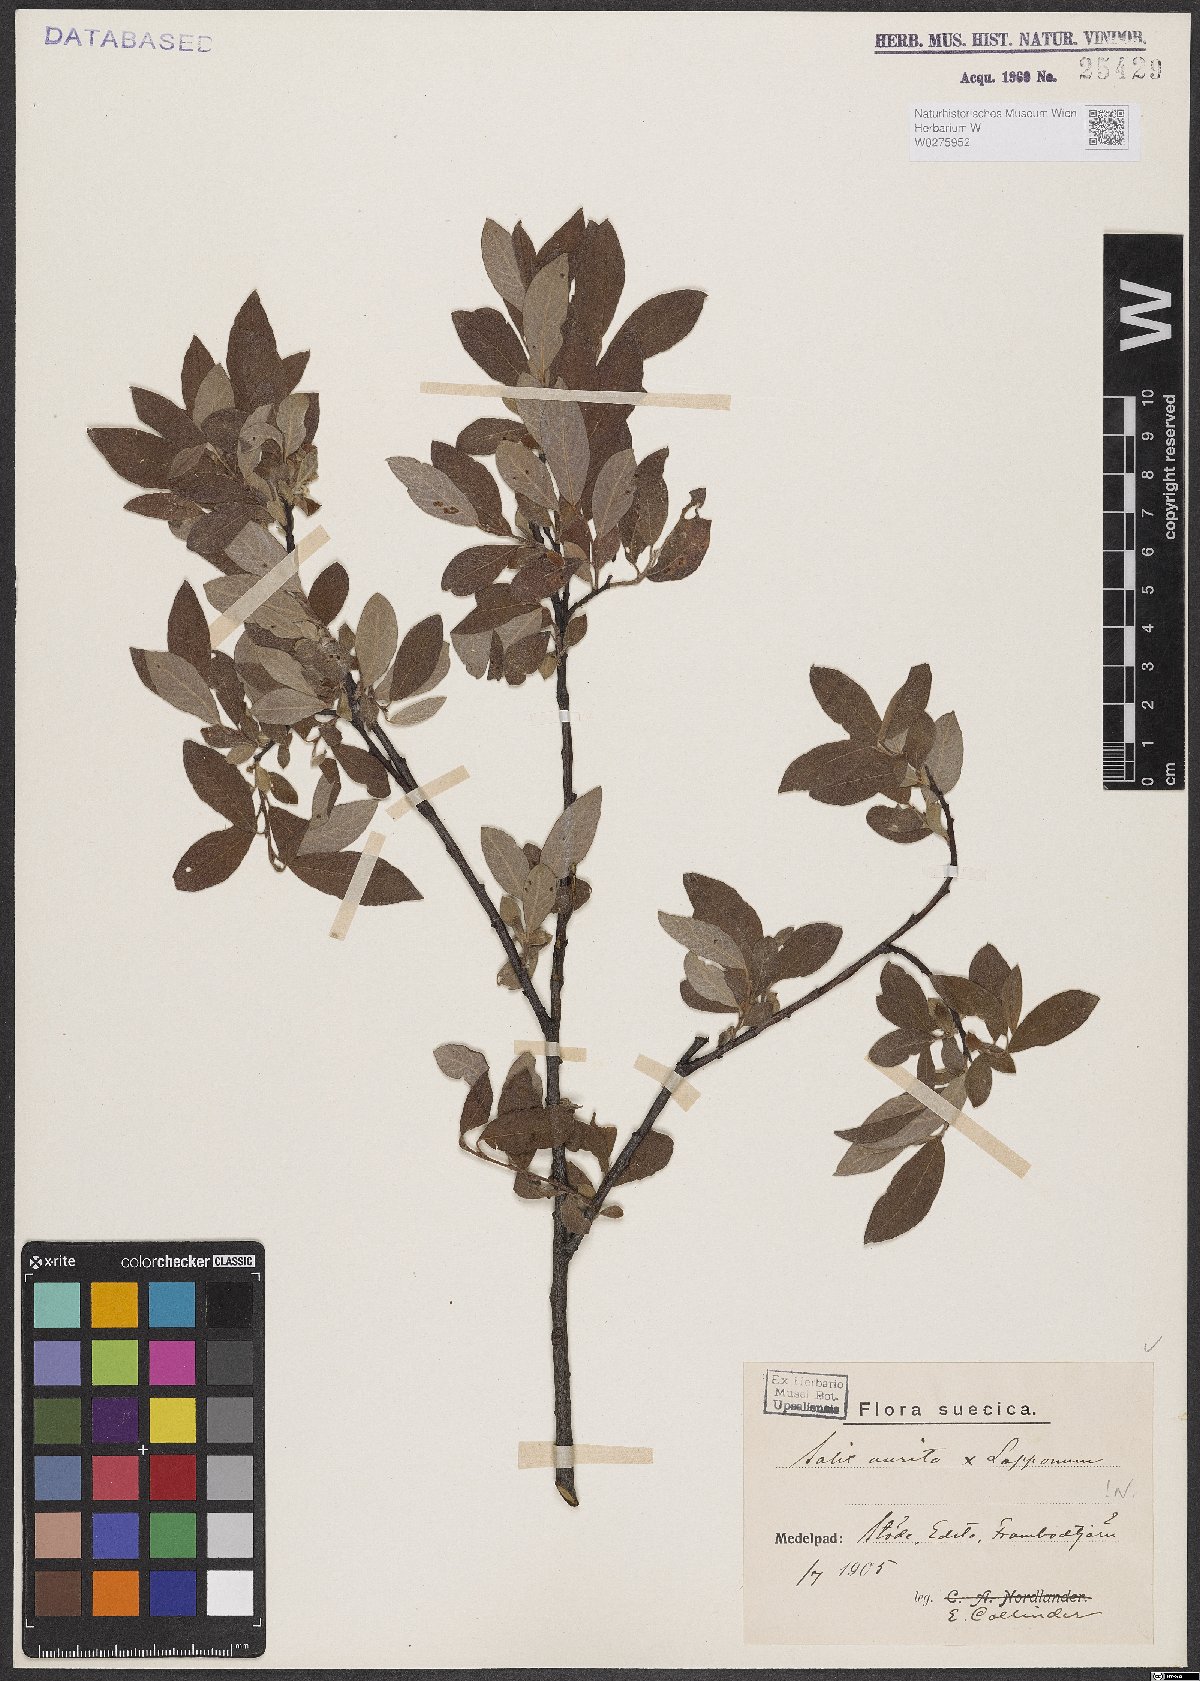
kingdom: Plantae
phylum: Tracheophyta
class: Magnoliopsida
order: Malpighiales
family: Salicaceae
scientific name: Salicaceae
